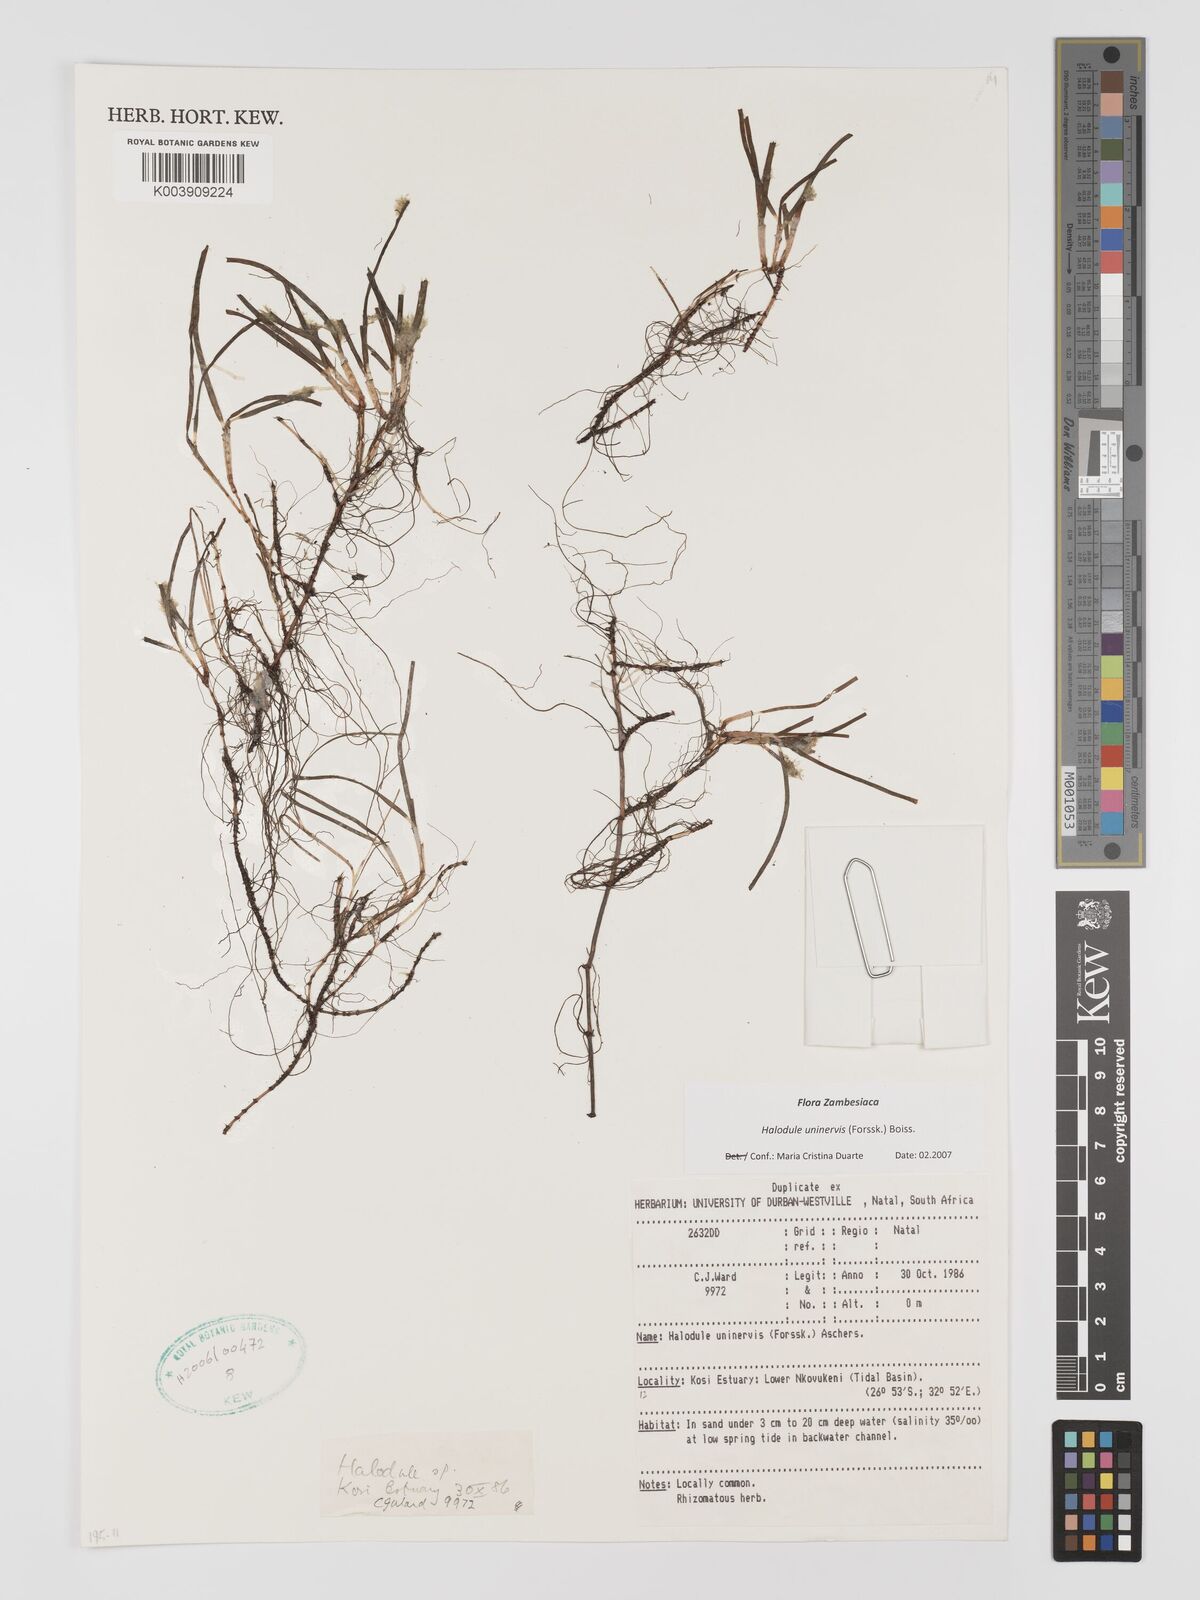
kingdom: Plantae
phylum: Tracheophyta
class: Liliopsida
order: Alismatales
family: Cymodoceaceae
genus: Halodule
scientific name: Halodule uninervis
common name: Narrowleaf seagrass
